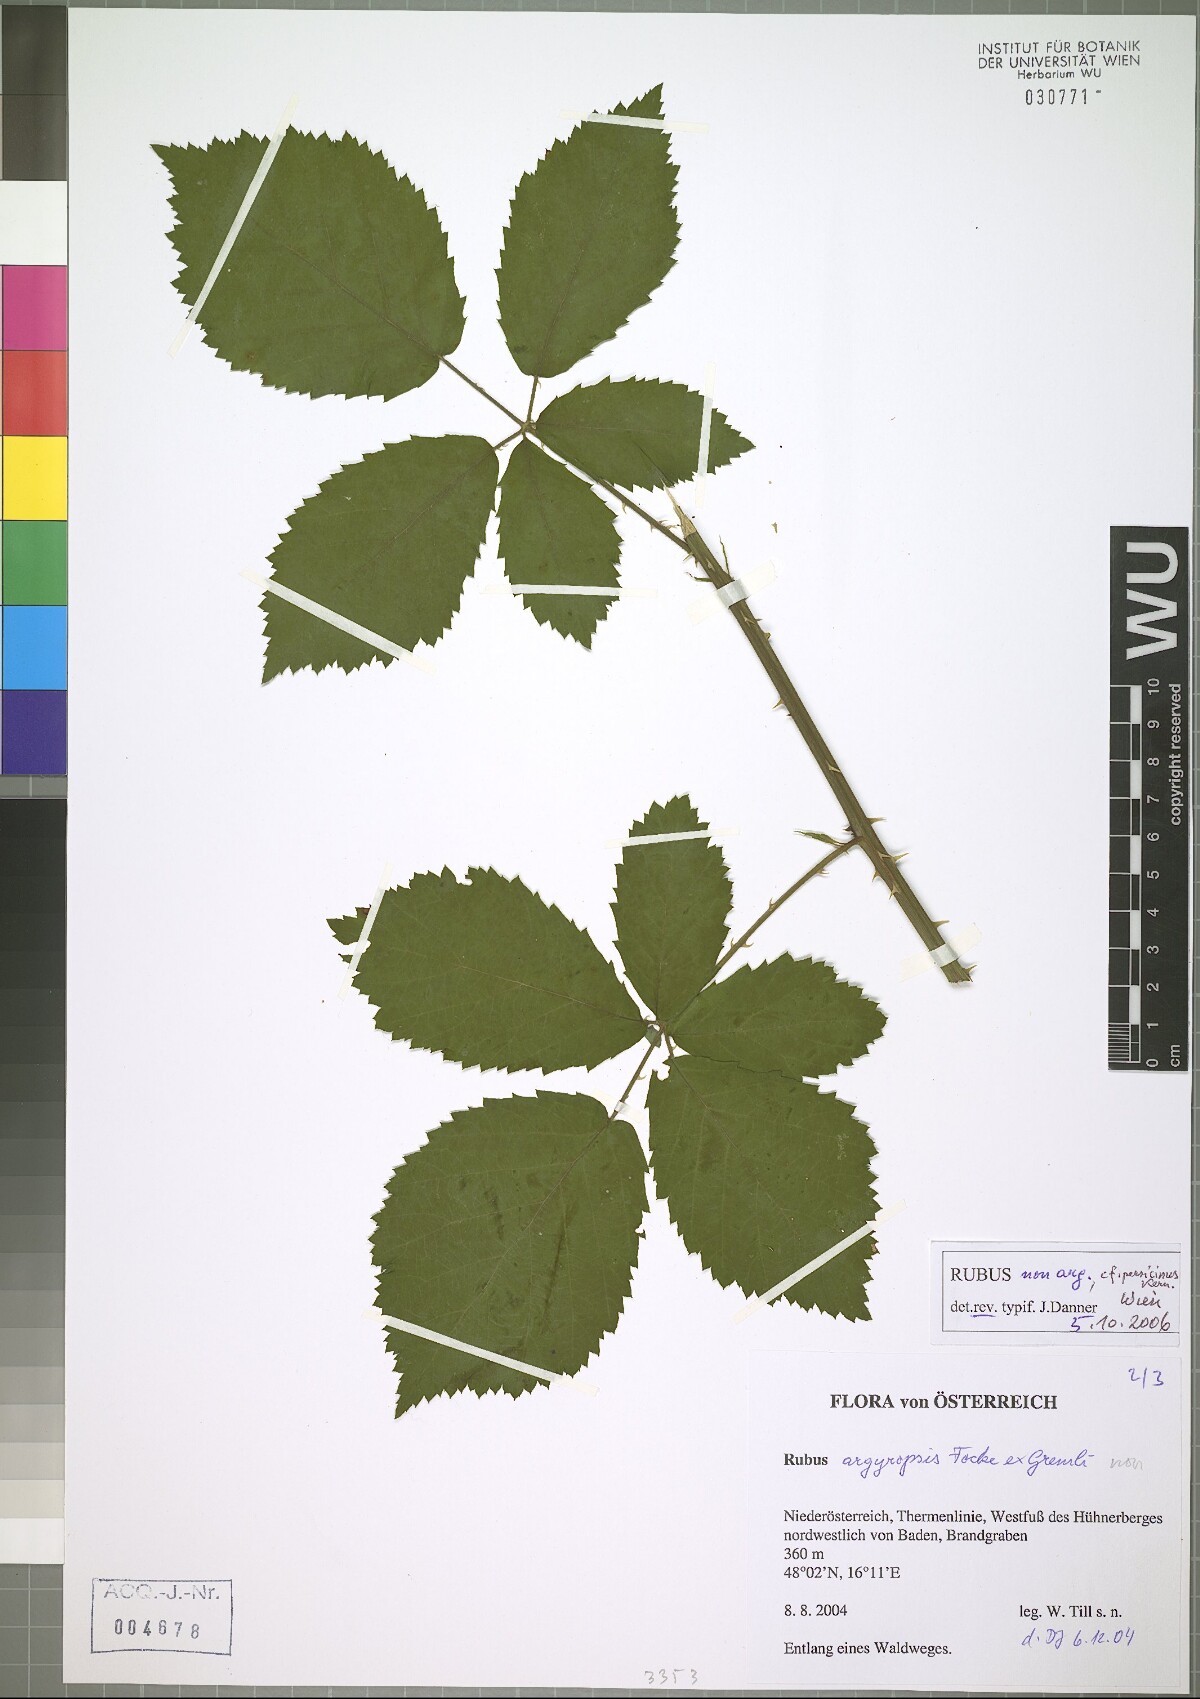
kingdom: Plantae
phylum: Tracheophyta
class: Magnoliopsida
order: Rosales
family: Rosaceae
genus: Rubus
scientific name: Rubus persicinus
